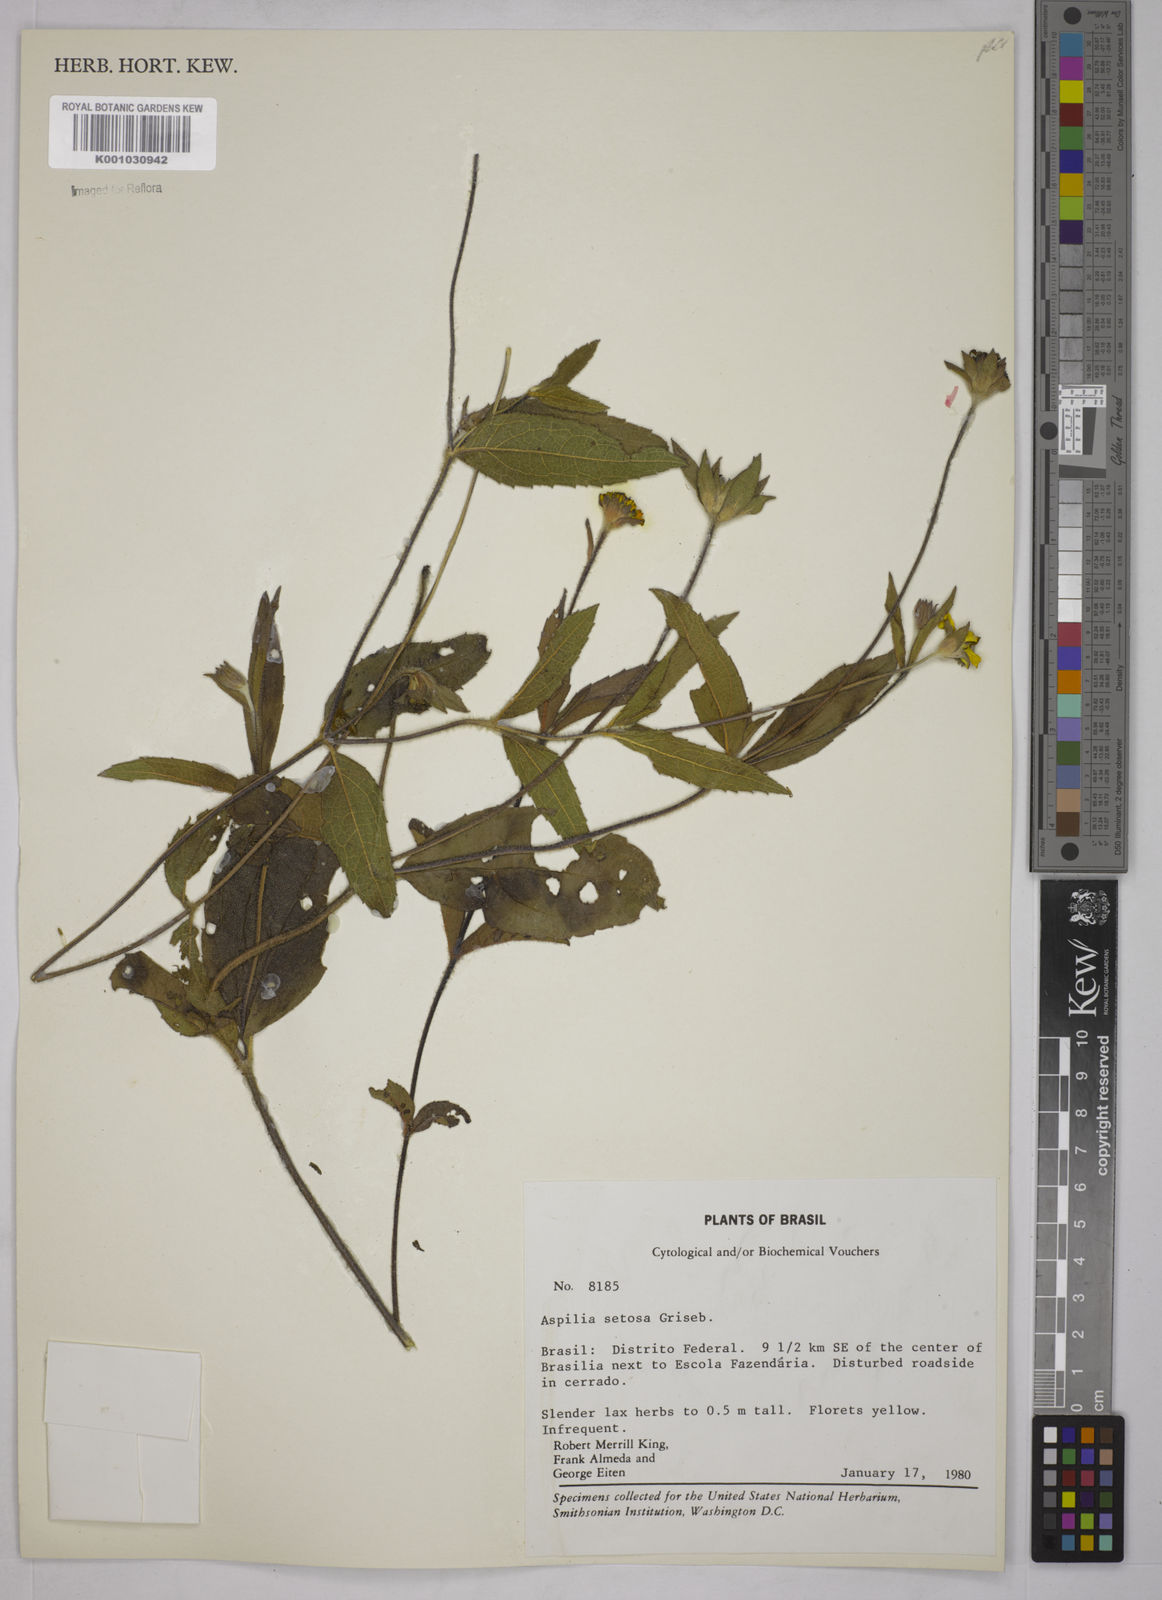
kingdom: Plantae
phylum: Tracheophyta
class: Magnoliopsida
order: Asterales
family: Asteraceae
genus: Aspilia
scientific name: Aspilia
